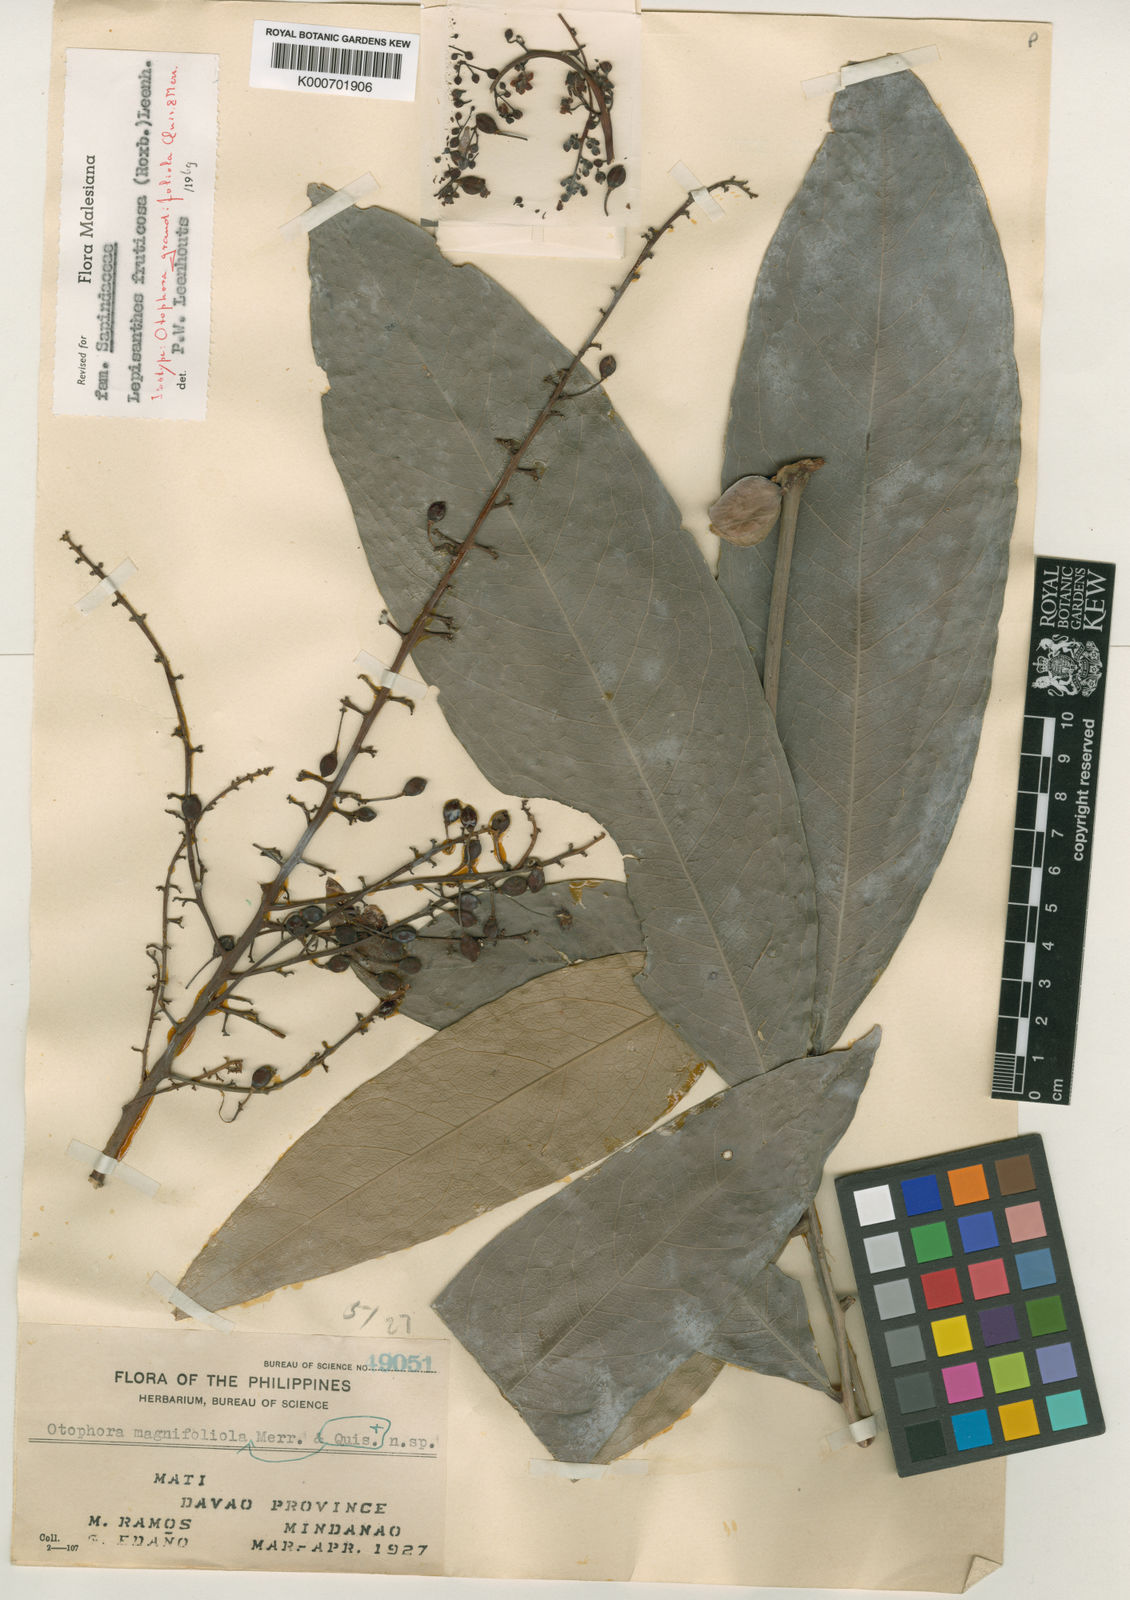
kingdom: Plantae
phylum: Tracheophyta
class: Magnoliopsida
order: Sapindales
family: Sapindaceae
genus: Lepisanthes
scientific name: Lepisanthes fruticosa
